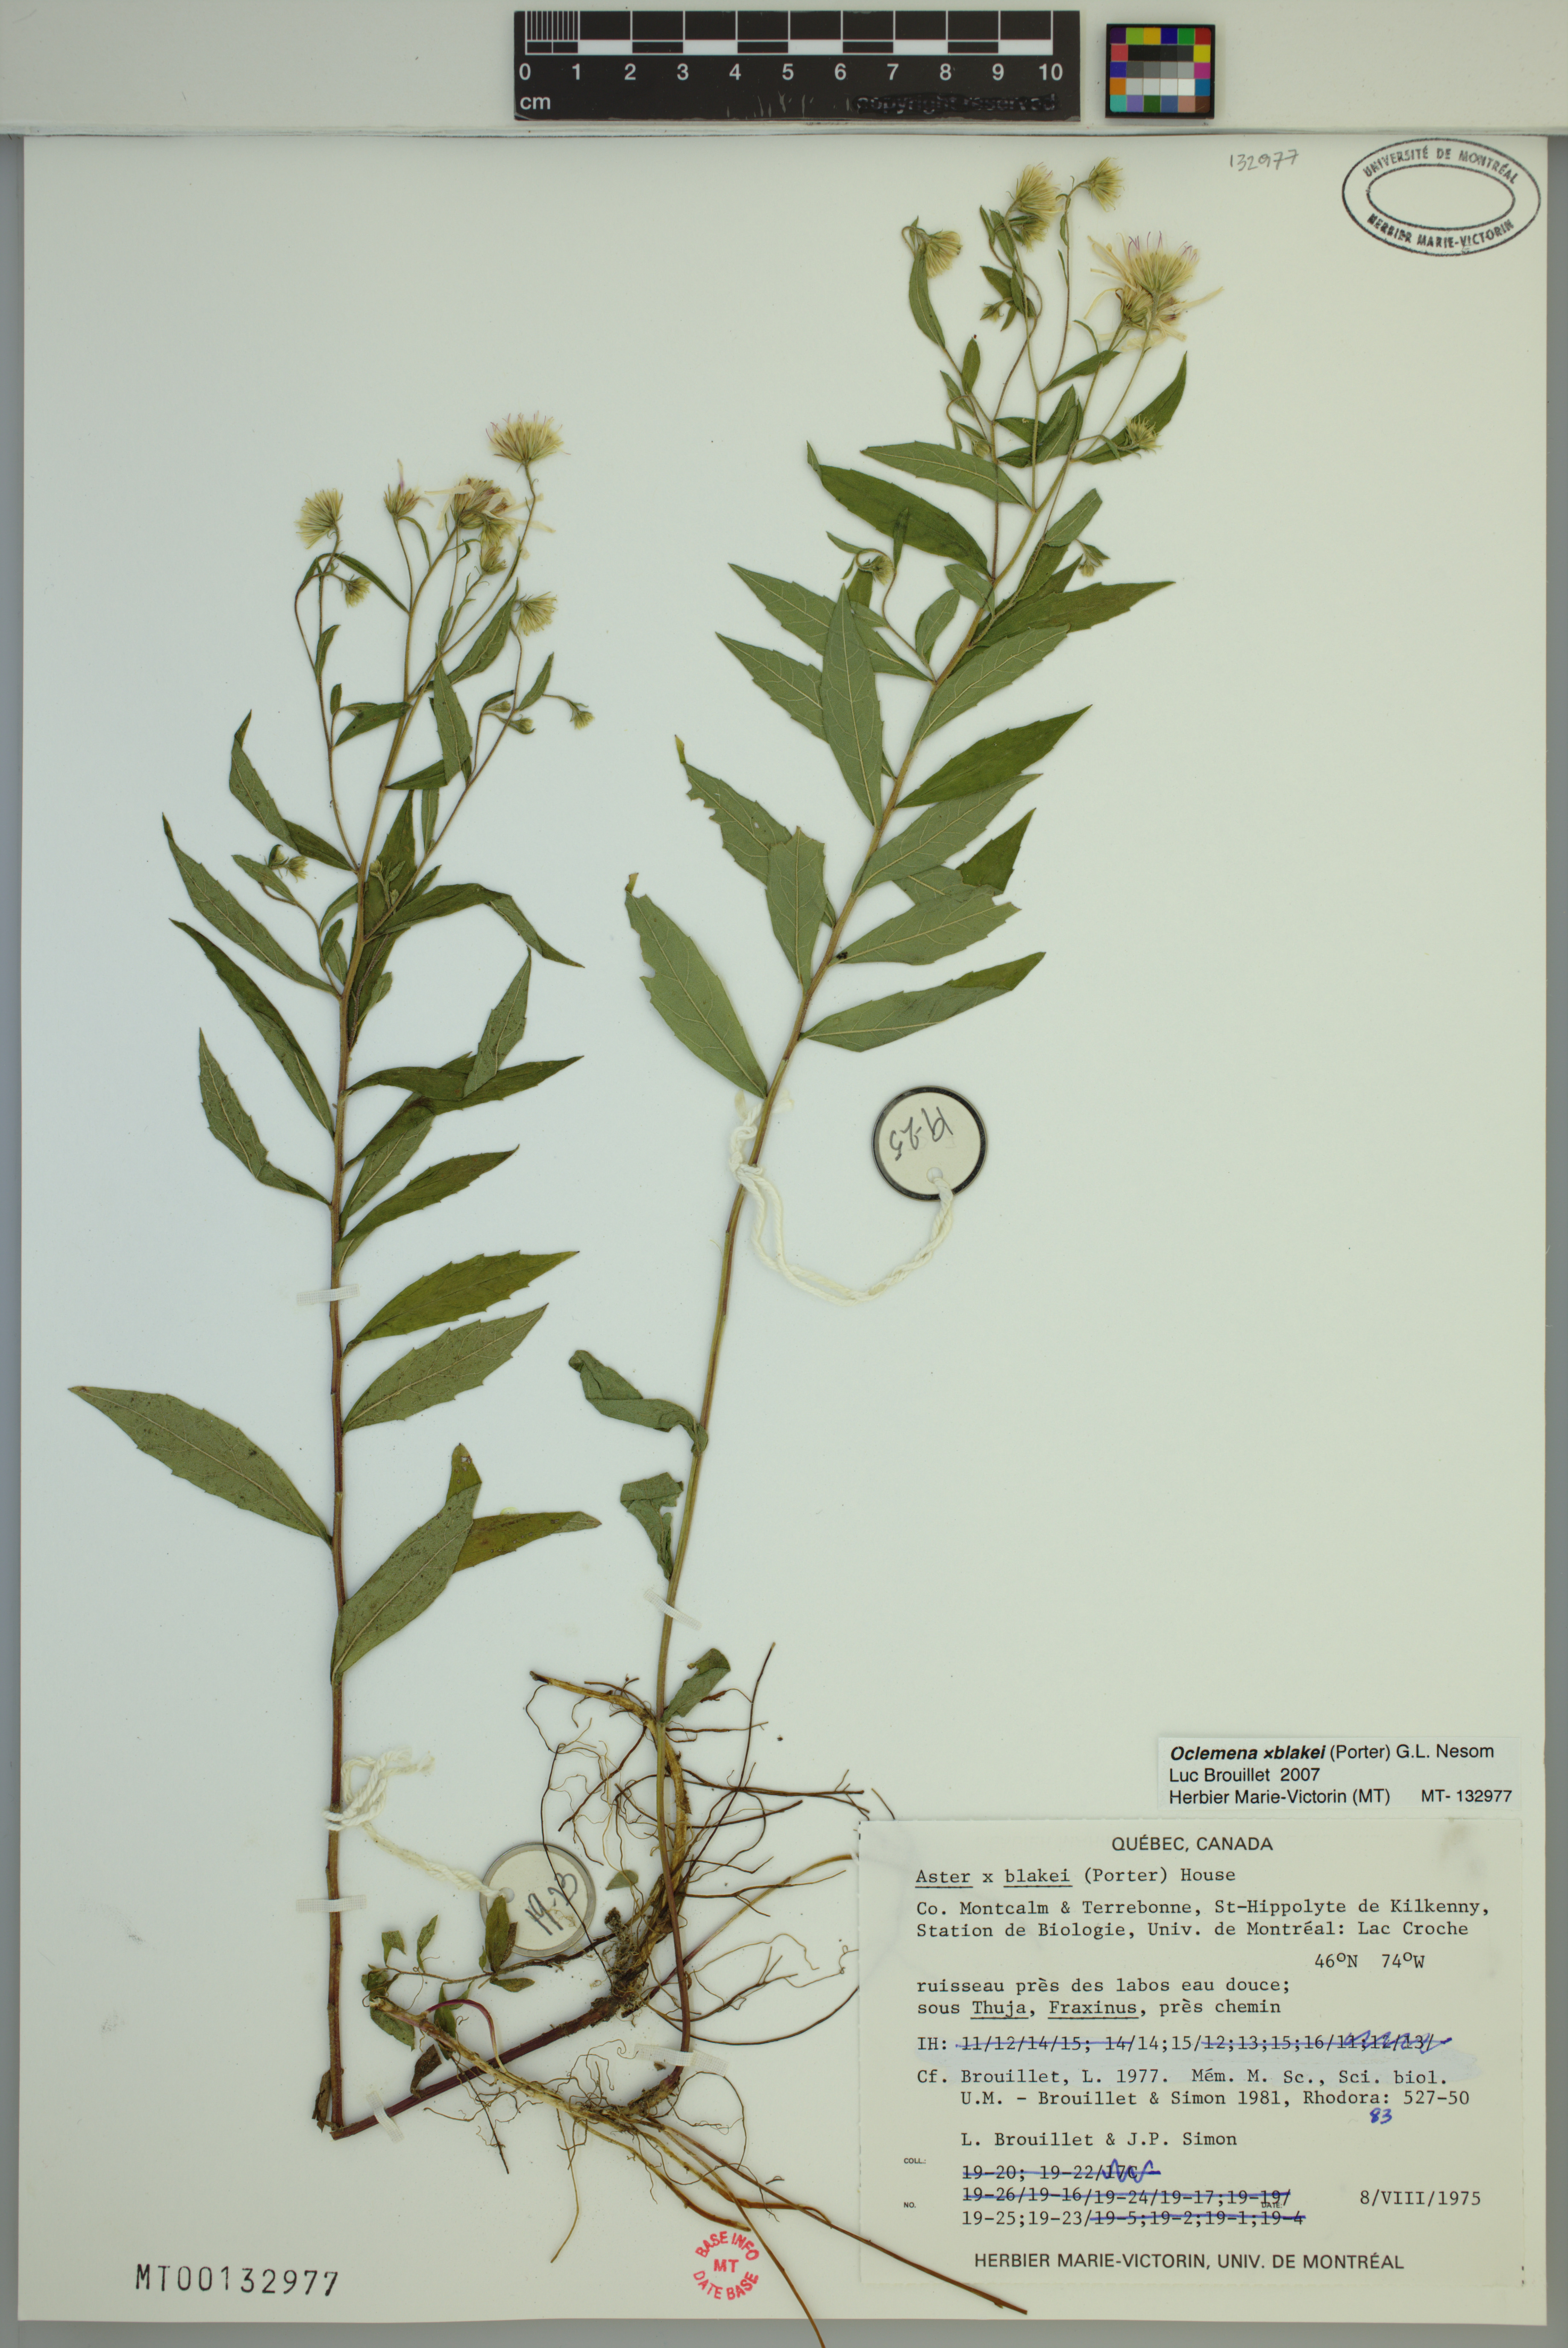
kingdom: Plantae
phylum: Tracheophyta
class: Magnoliopsida
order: Asterales
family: Asteraceae
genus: Oclemena
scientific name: Oclemena blakei
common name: Blake's aster
